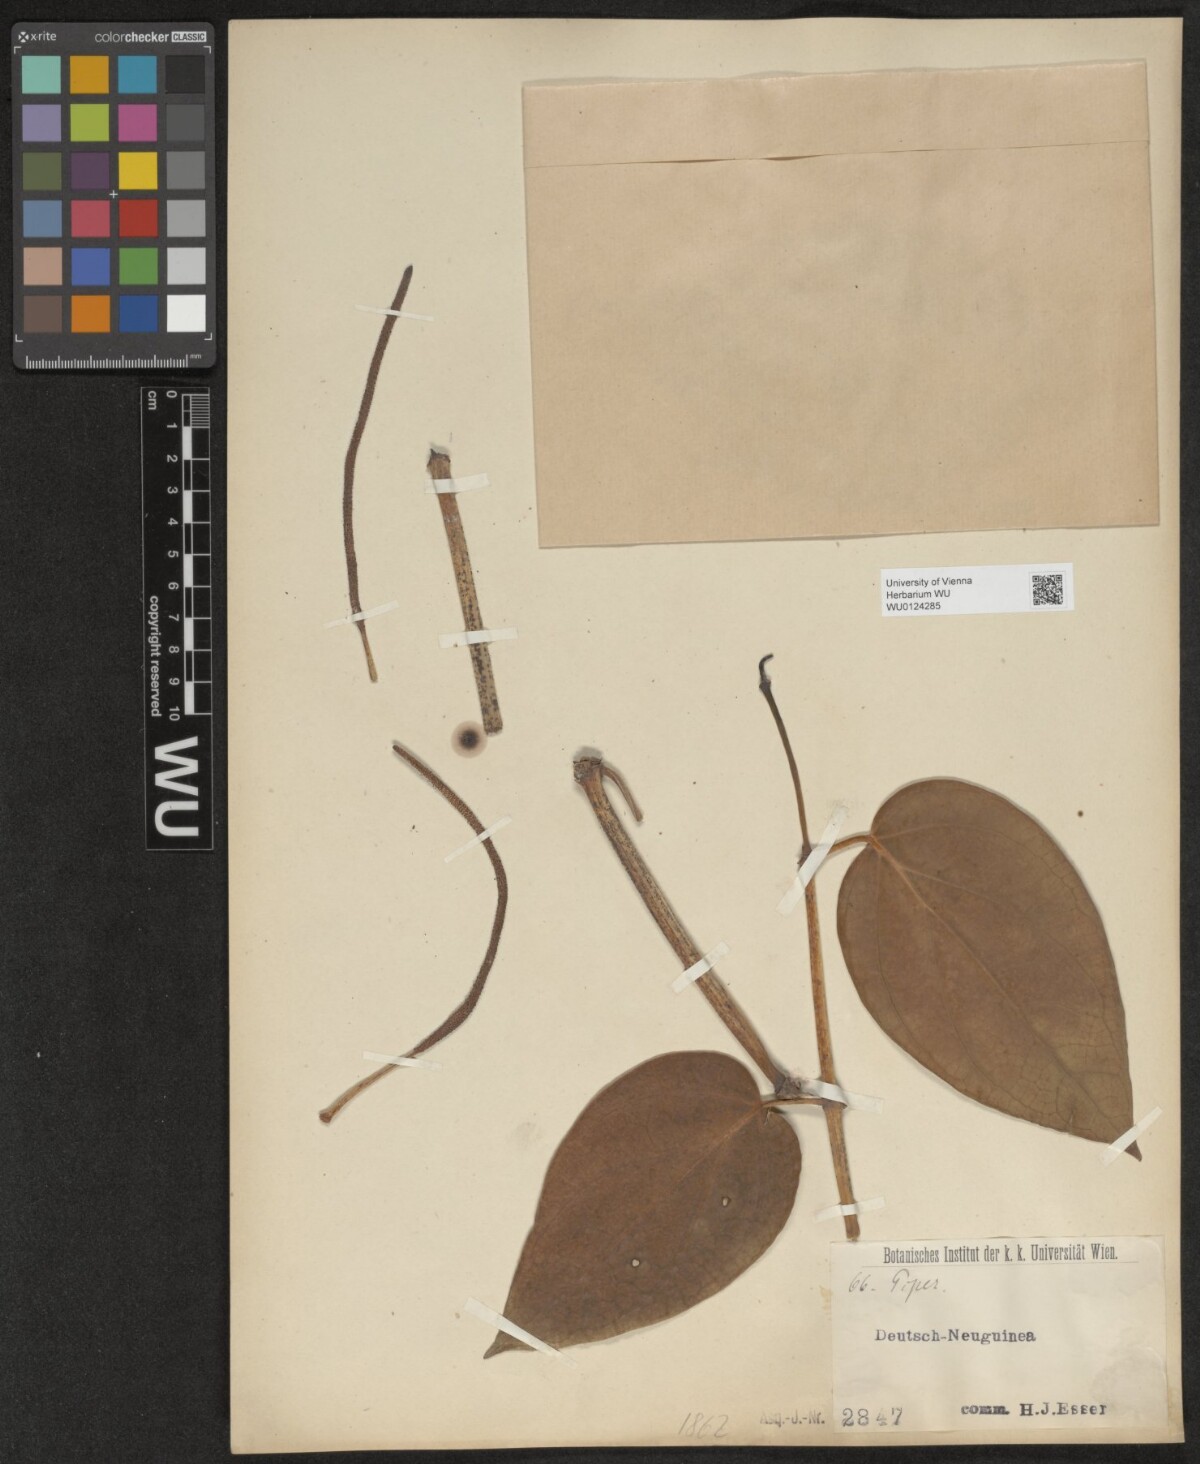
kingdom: Plantae
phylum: Tracheophyta
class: Magnoliopsida
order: Piperales
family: Piperaceae
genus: Piper
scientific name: Piper
